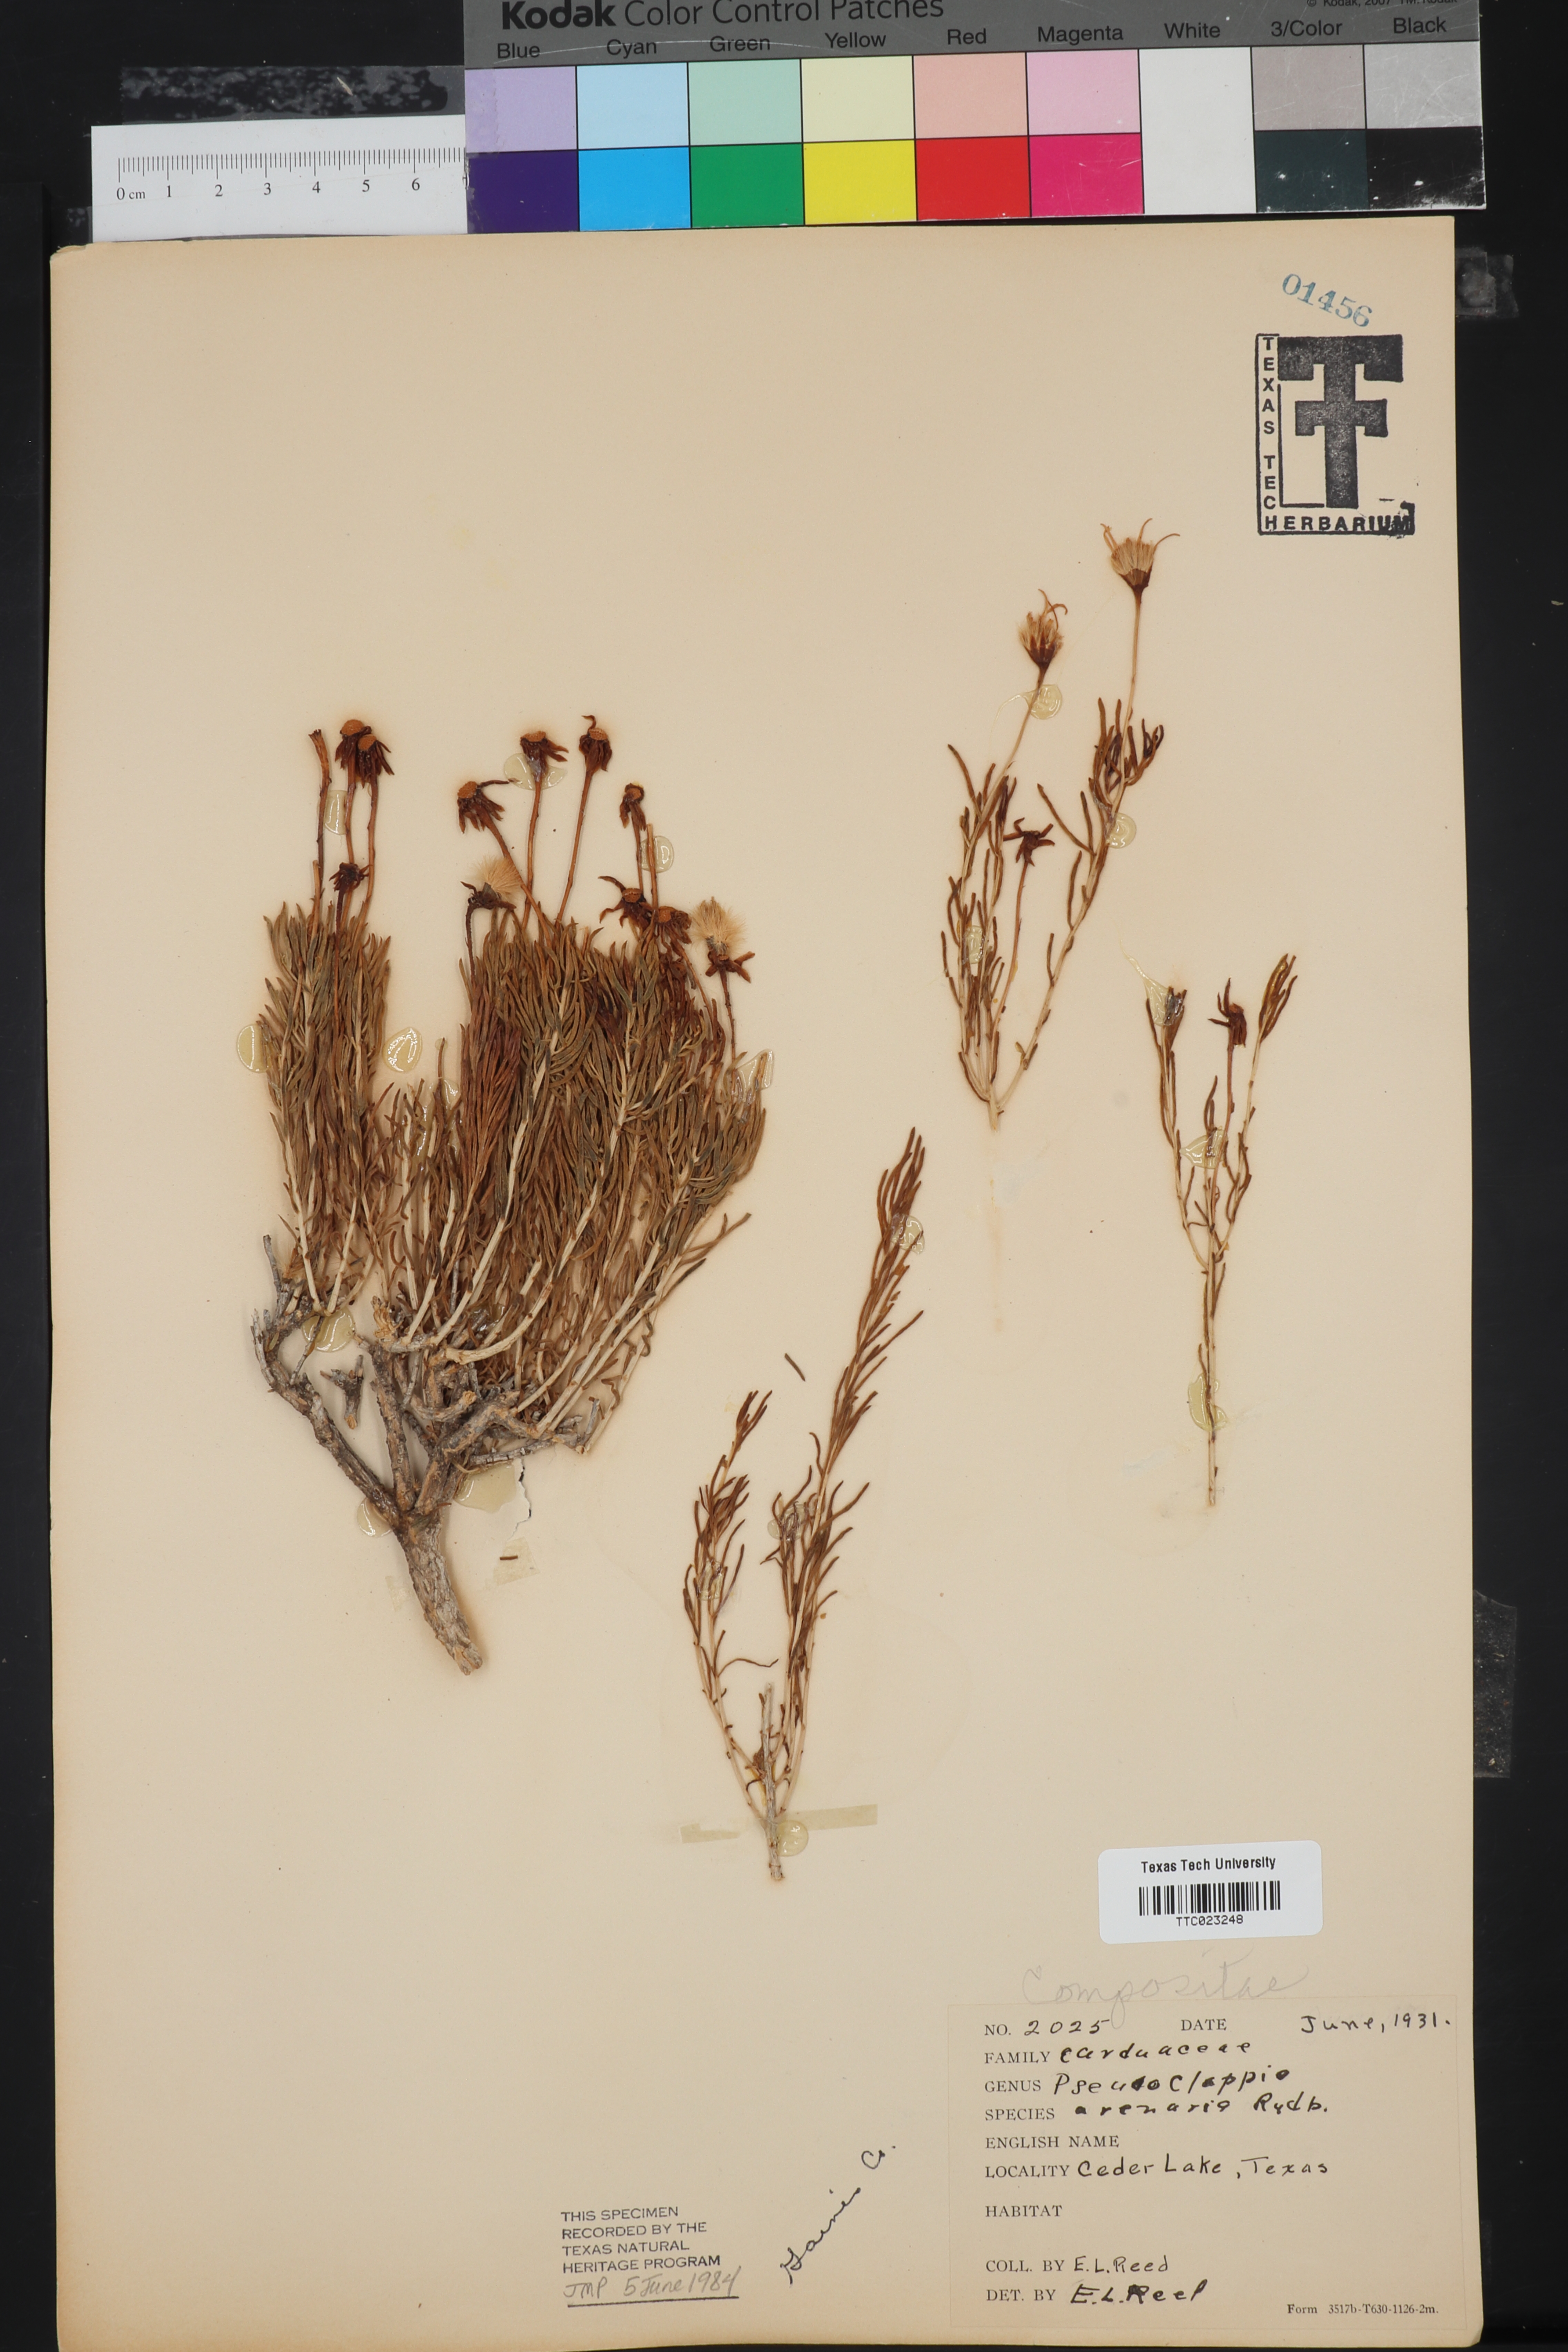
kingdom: Plantae
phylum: Tracheophyta
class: Magnoliopsida
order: Asterales
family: Asteraceae
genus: Pseudoclappia
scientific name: Pseudoclappia arenaria
